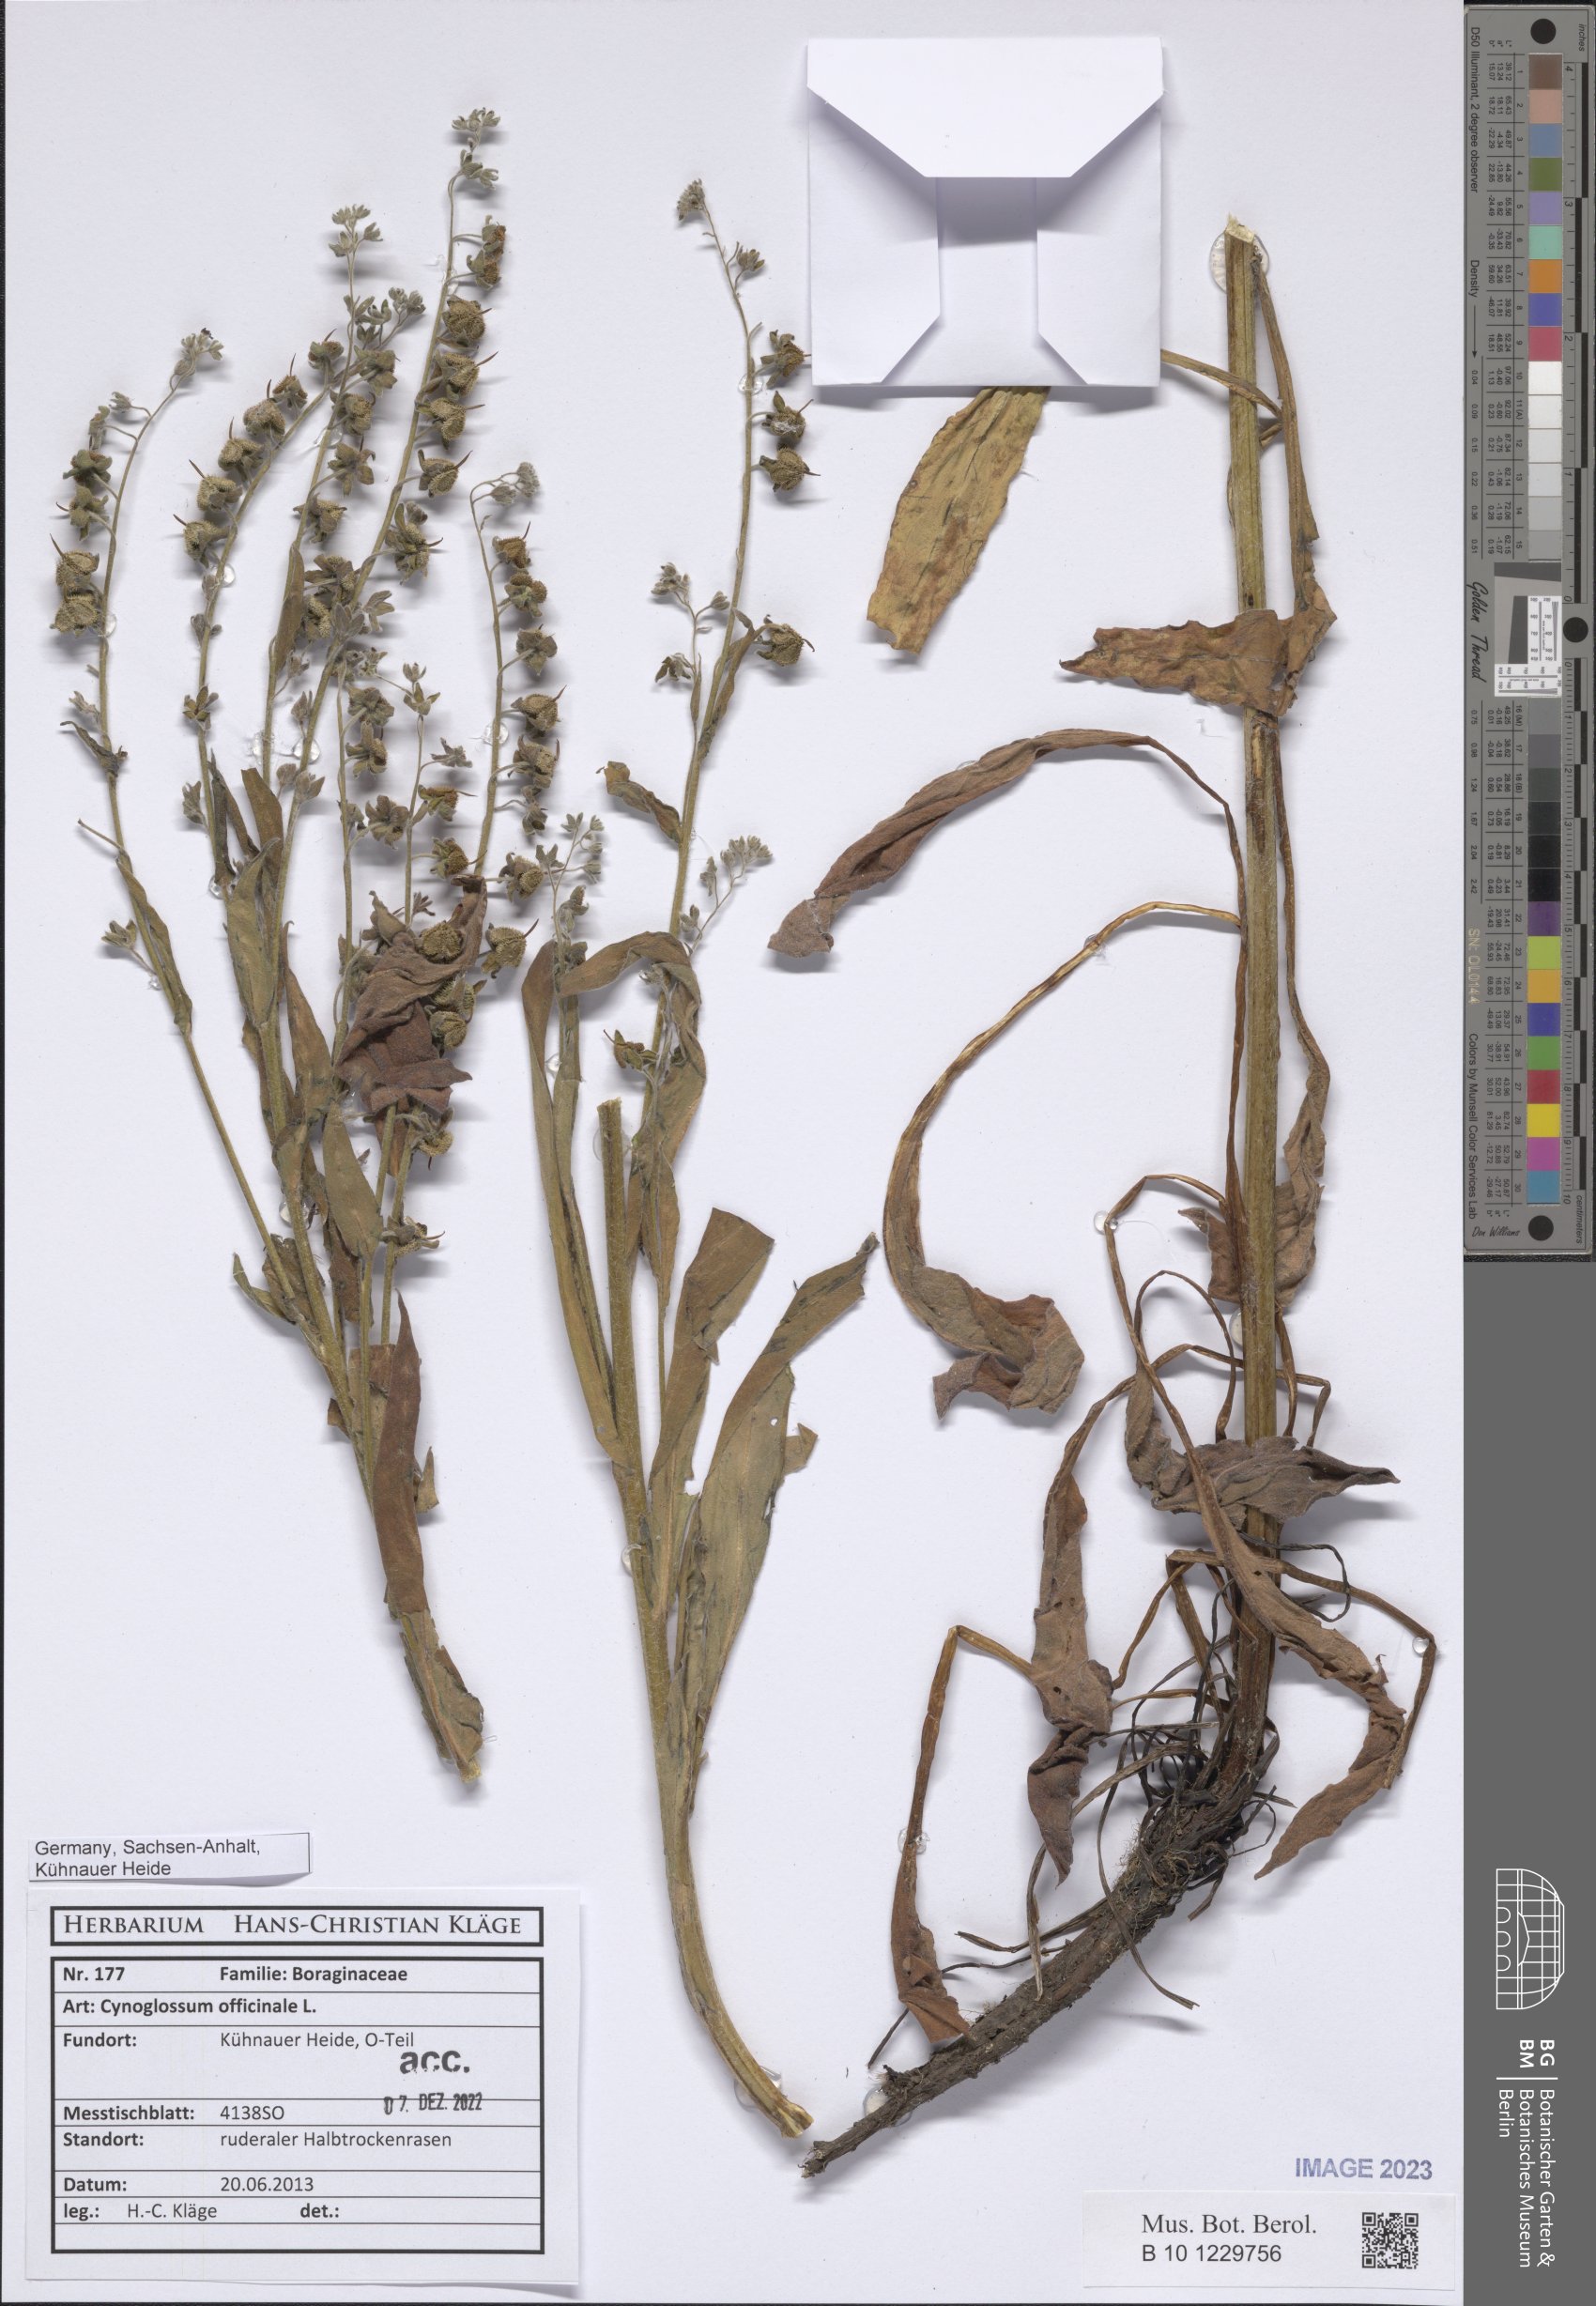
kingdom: Plantae
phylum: Tracheophyta
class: Magnoliopsida
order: Boraginales
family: Boraginaceae
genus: Cynoglossum
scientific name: Cynoglossum officinale
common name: Hound's-tongue
